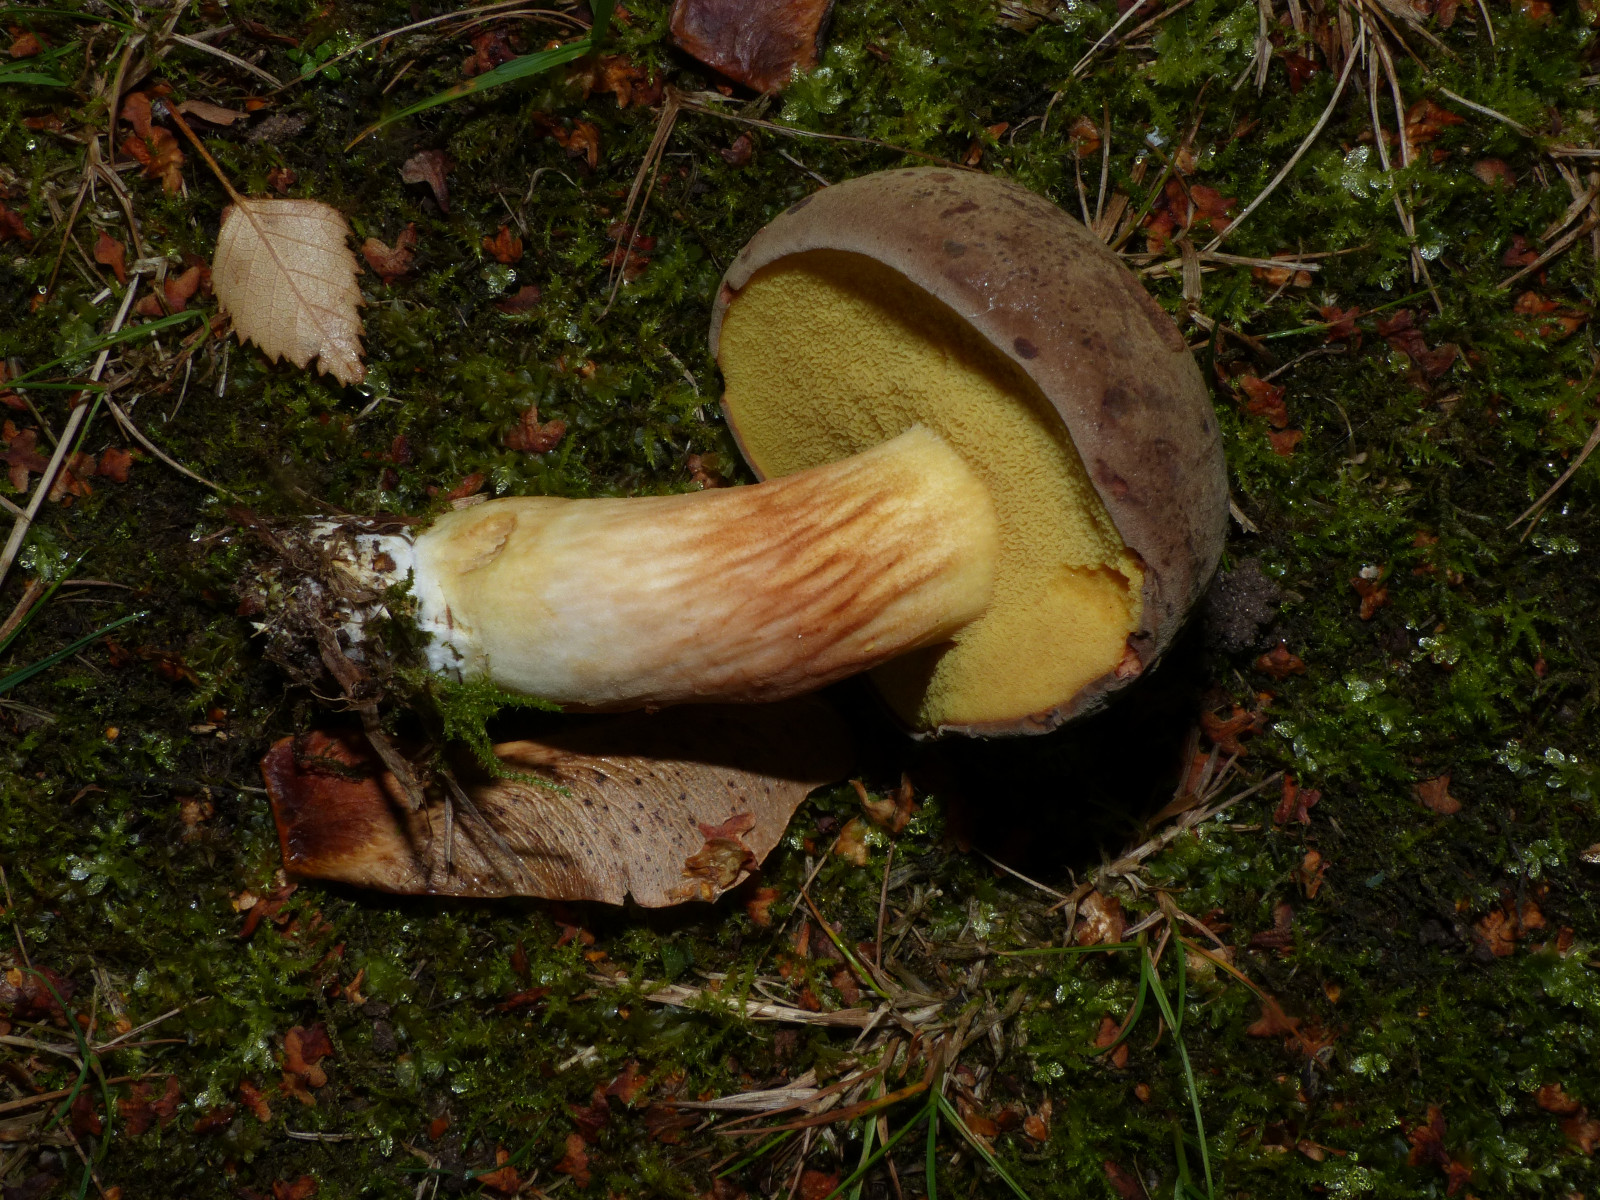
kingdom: Fungi
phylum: Basidiomycota
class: Agaricomycetes
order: Boletales
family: Boletaceae
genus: Xerocomus
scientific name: Xerocomus ferrugineus
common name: vaskeskinds-rørhat
